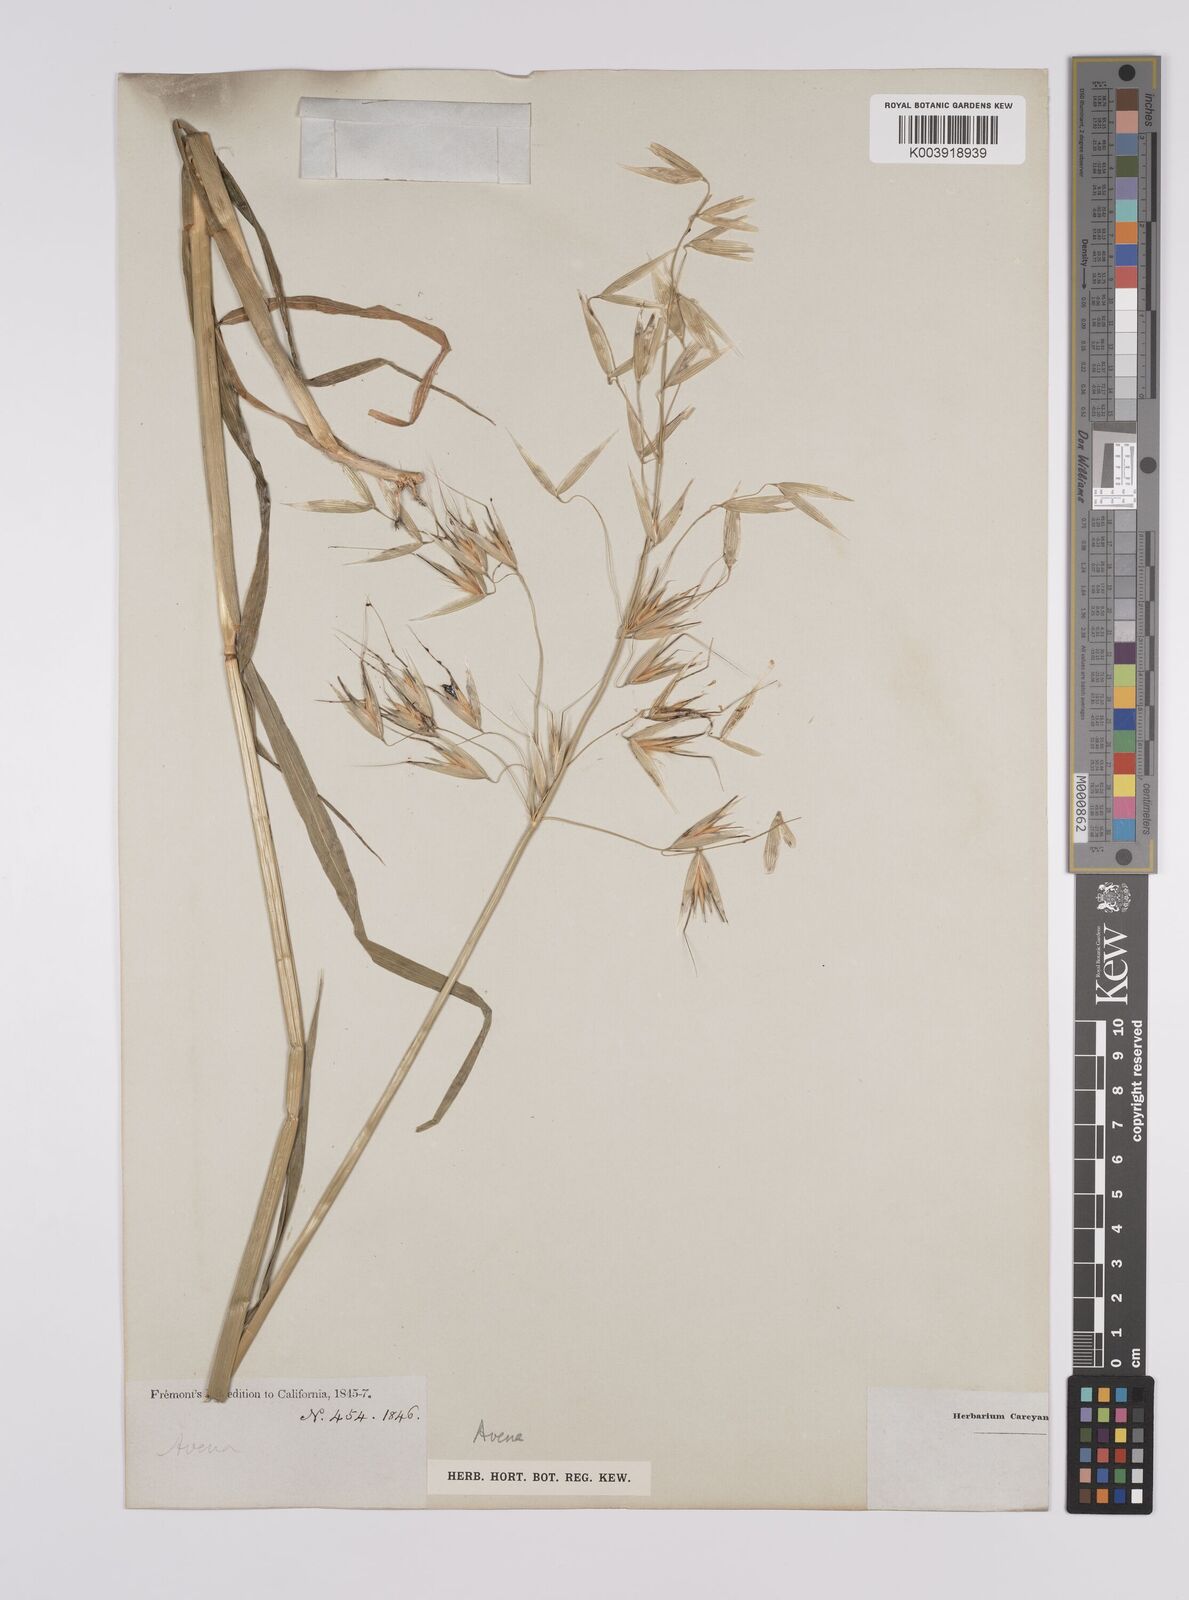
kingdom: Plantae
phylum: Tracheophyta
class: Liliopsida
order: Poales
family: Poaceae
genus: Avena
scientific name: Avena fatua
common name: Wild oat
